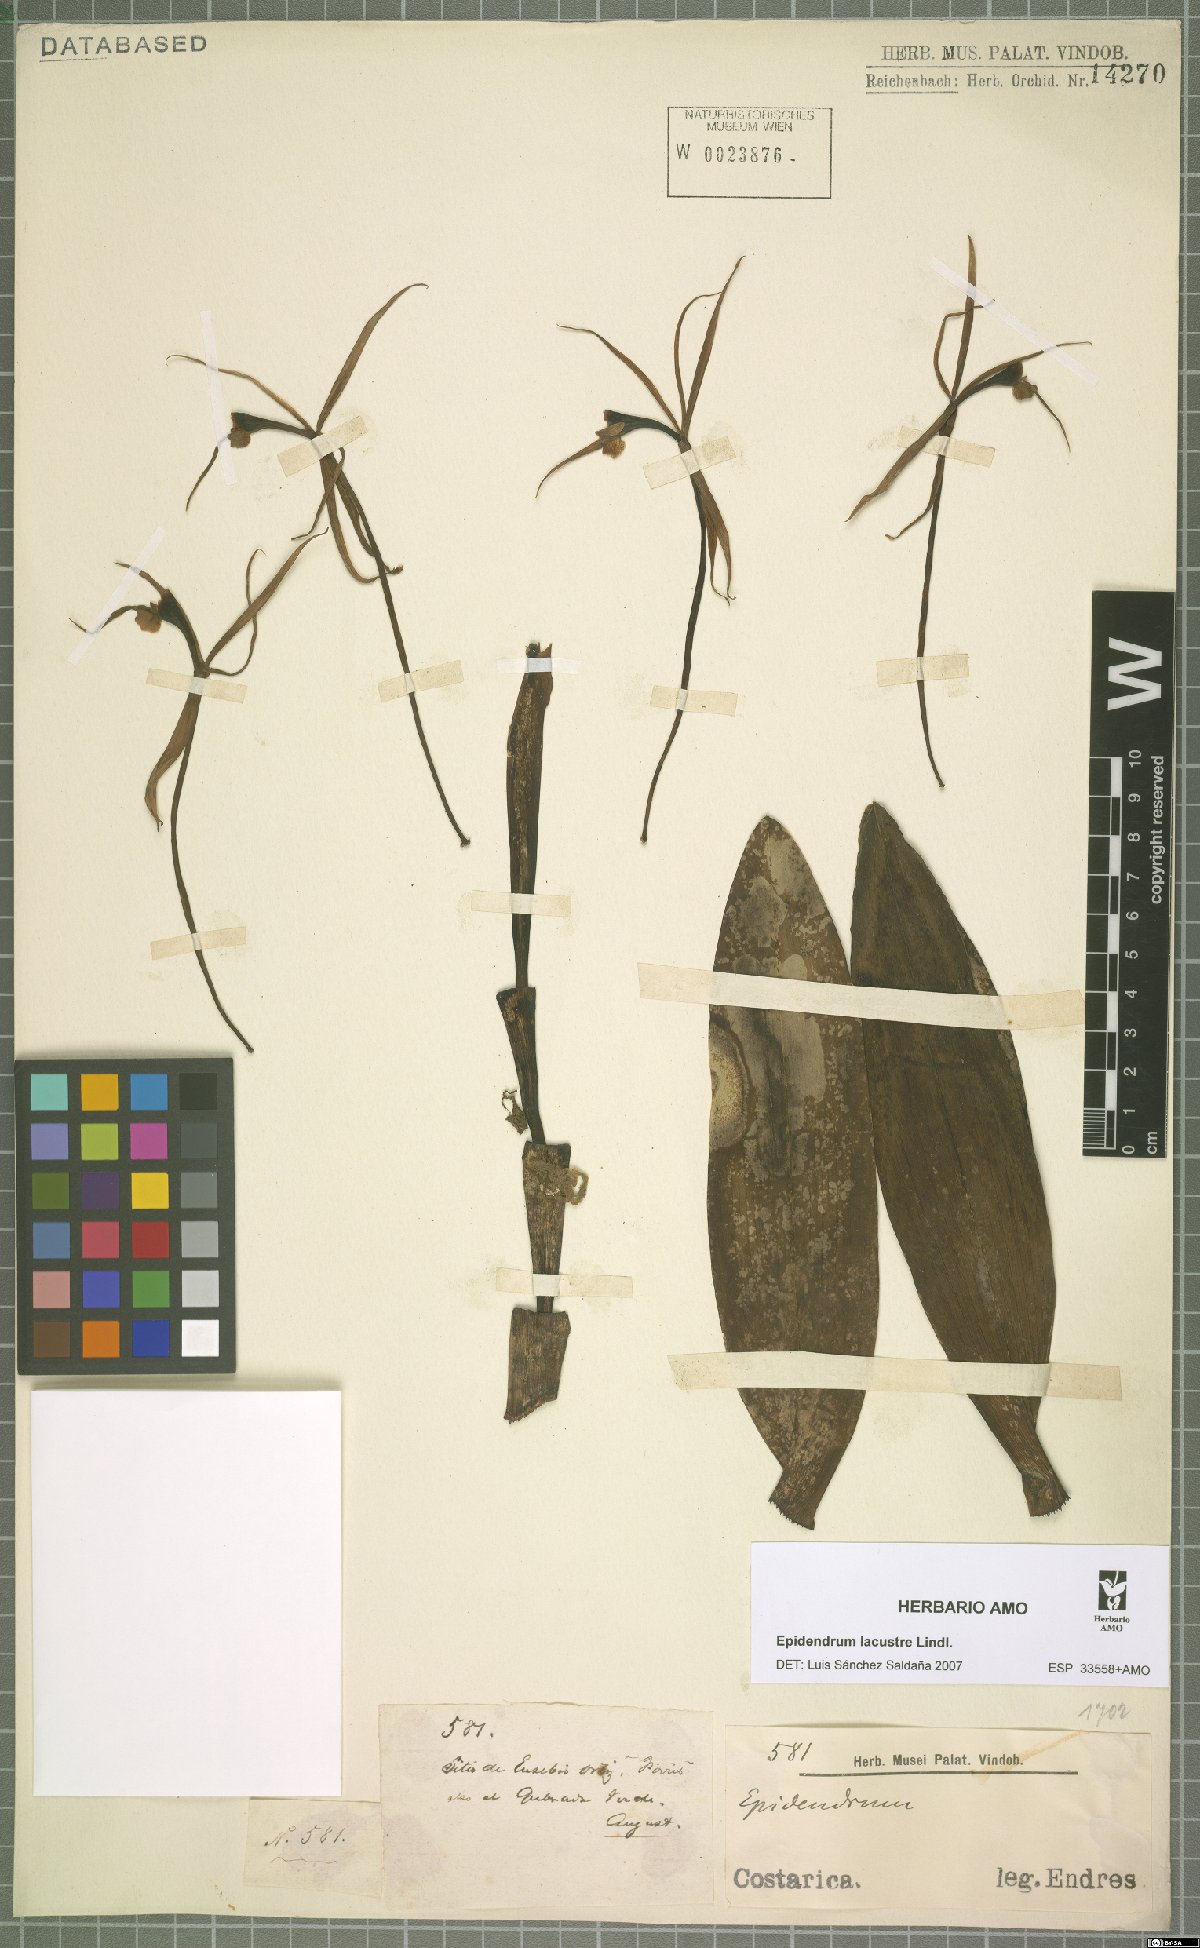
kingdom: Plantae
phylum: Tracheophyta
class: Liliopsida
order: Asparagales
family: Orchidaceae
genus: Epidendrum
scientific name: Epidendrum lacustre
